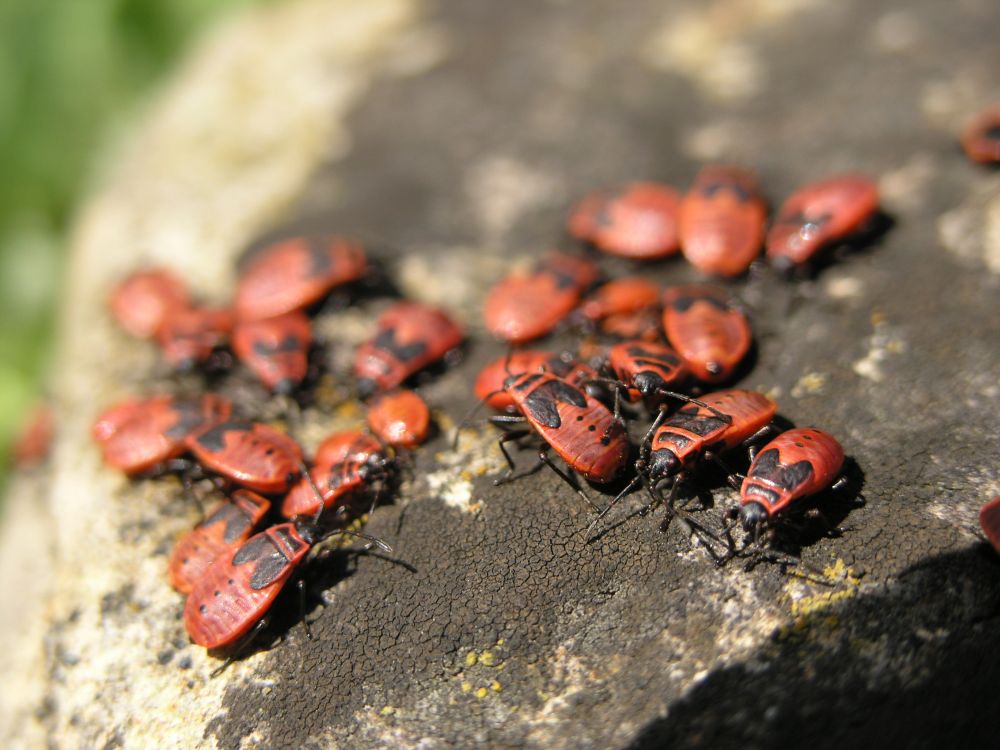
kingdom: Animalia
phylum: Arthropoda
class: Insecta
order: Hemiptera
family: Pyrrhocoridae
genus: Pyrrhocoris
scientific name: Pyrrhocoris apterus
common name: Firebug
